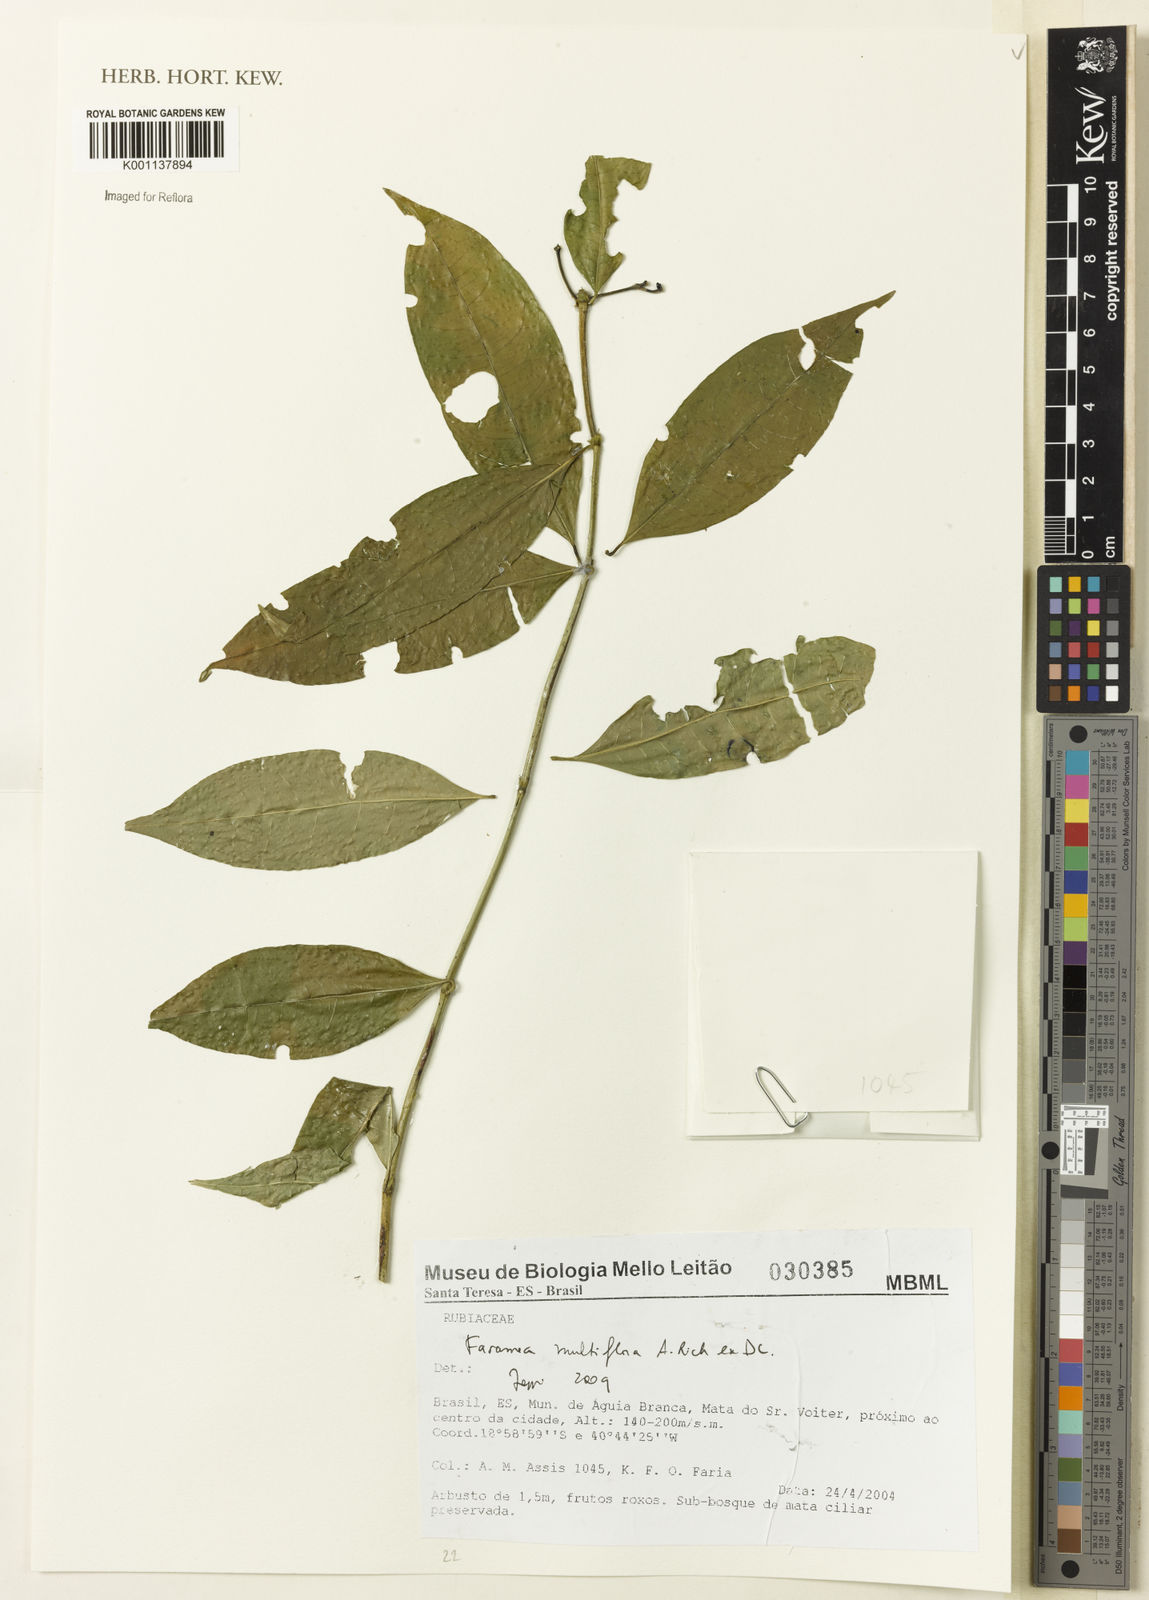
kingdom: Plantae
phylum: Tracheophyta
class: Magnoliopsida
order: Gentianales
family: Rubiaceae
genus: Faramea
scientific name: Faramea multiflora
